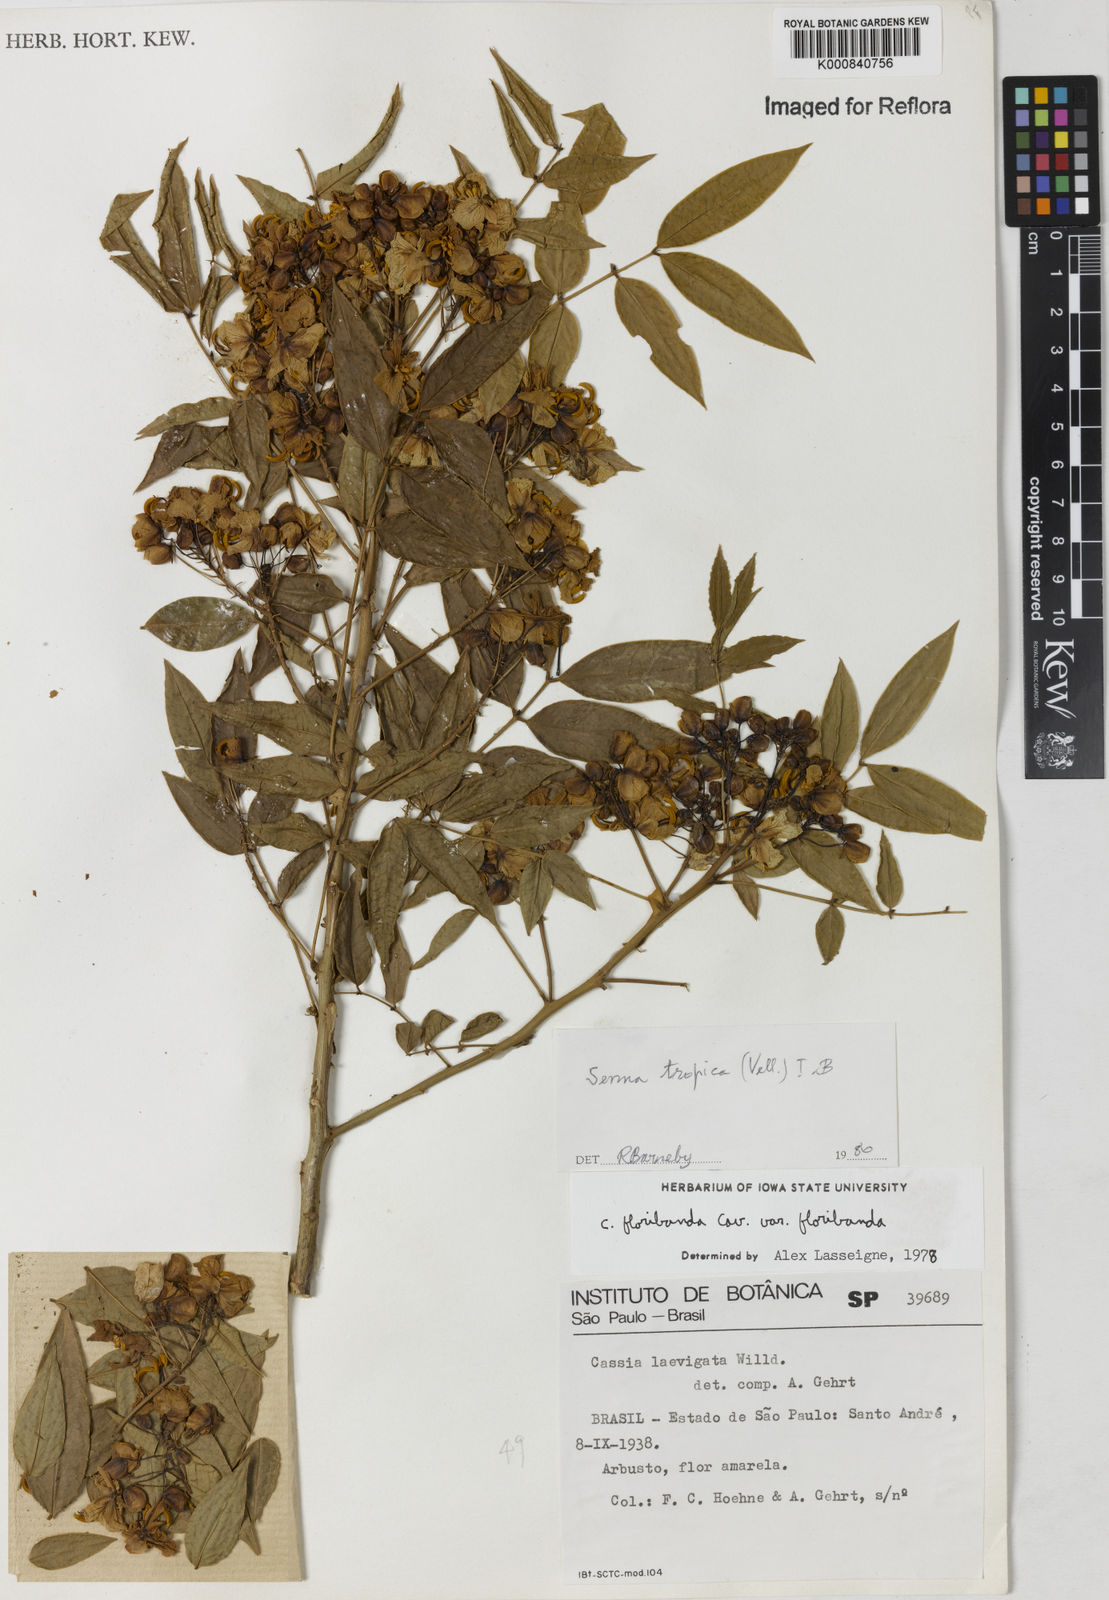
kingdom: Plantae
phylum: Tracheophyta
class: Magnoliopsida
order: Fabales
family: Fabaceae
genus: Senna
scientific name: Senna tropica
